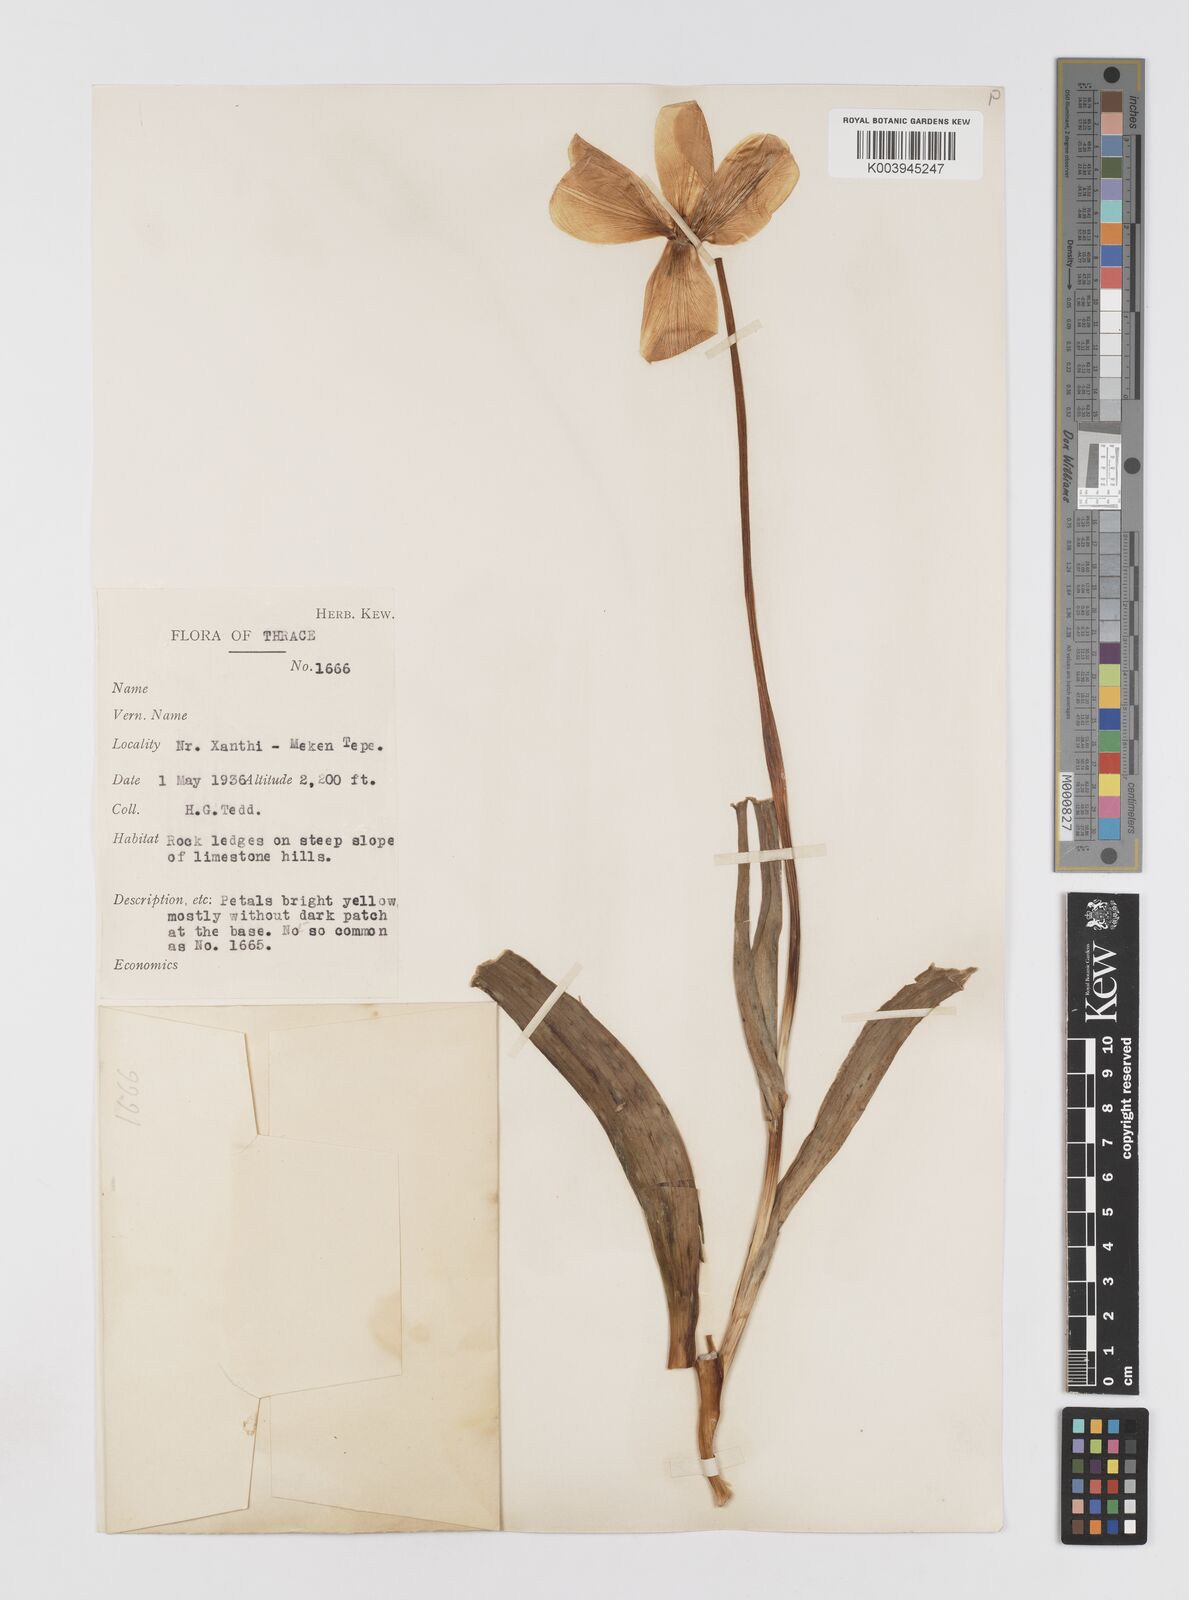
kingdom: Plantae
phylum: Tracheophyta
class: Liliopsida
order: Liliales
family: Liliaceae
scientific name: Liliaceae
